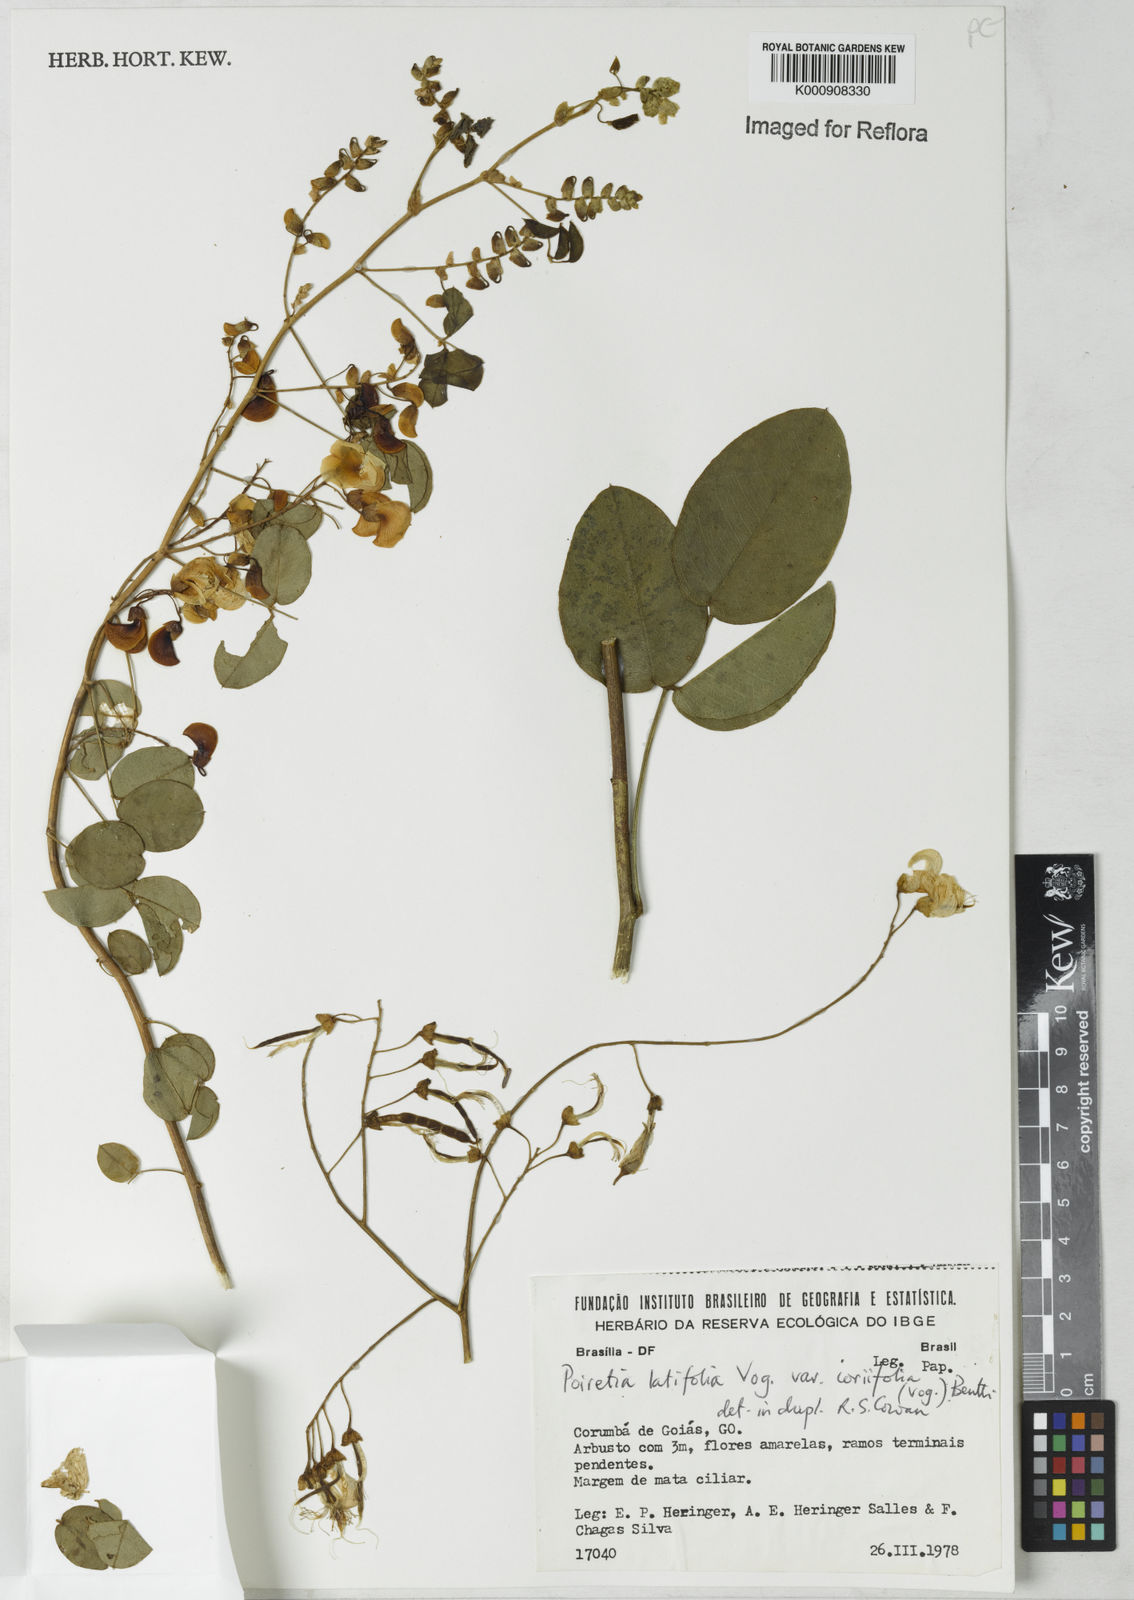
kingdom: Plantae
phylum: Tracheophyta
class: Magnoliopsida
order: Fabales
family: Fabaceae
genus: Poiretia
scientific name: Poiretia coriifolia
